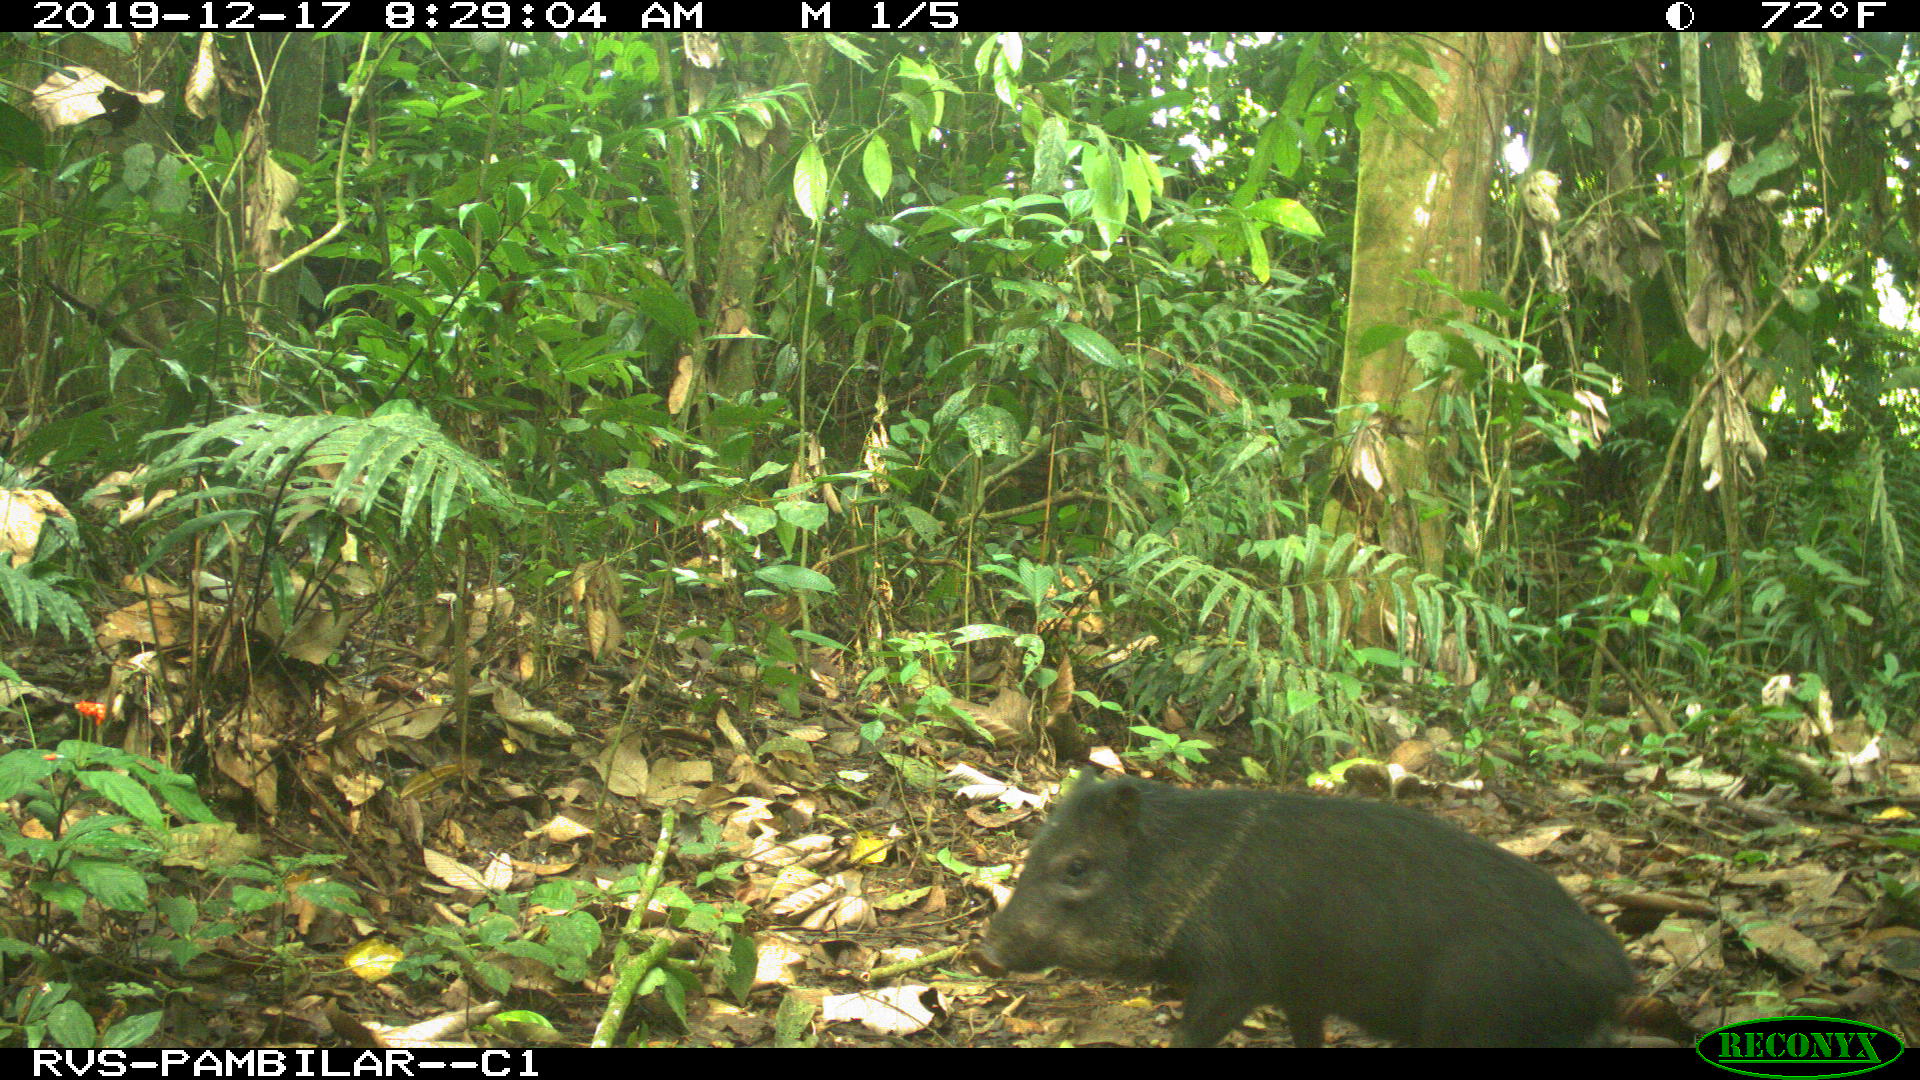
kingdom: Animalia
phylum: Chordata
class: Mammalia
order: Artiodactyla
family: Tayassuidae
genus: Pecari
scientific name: Pecari tajacu
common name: Collared peccary
